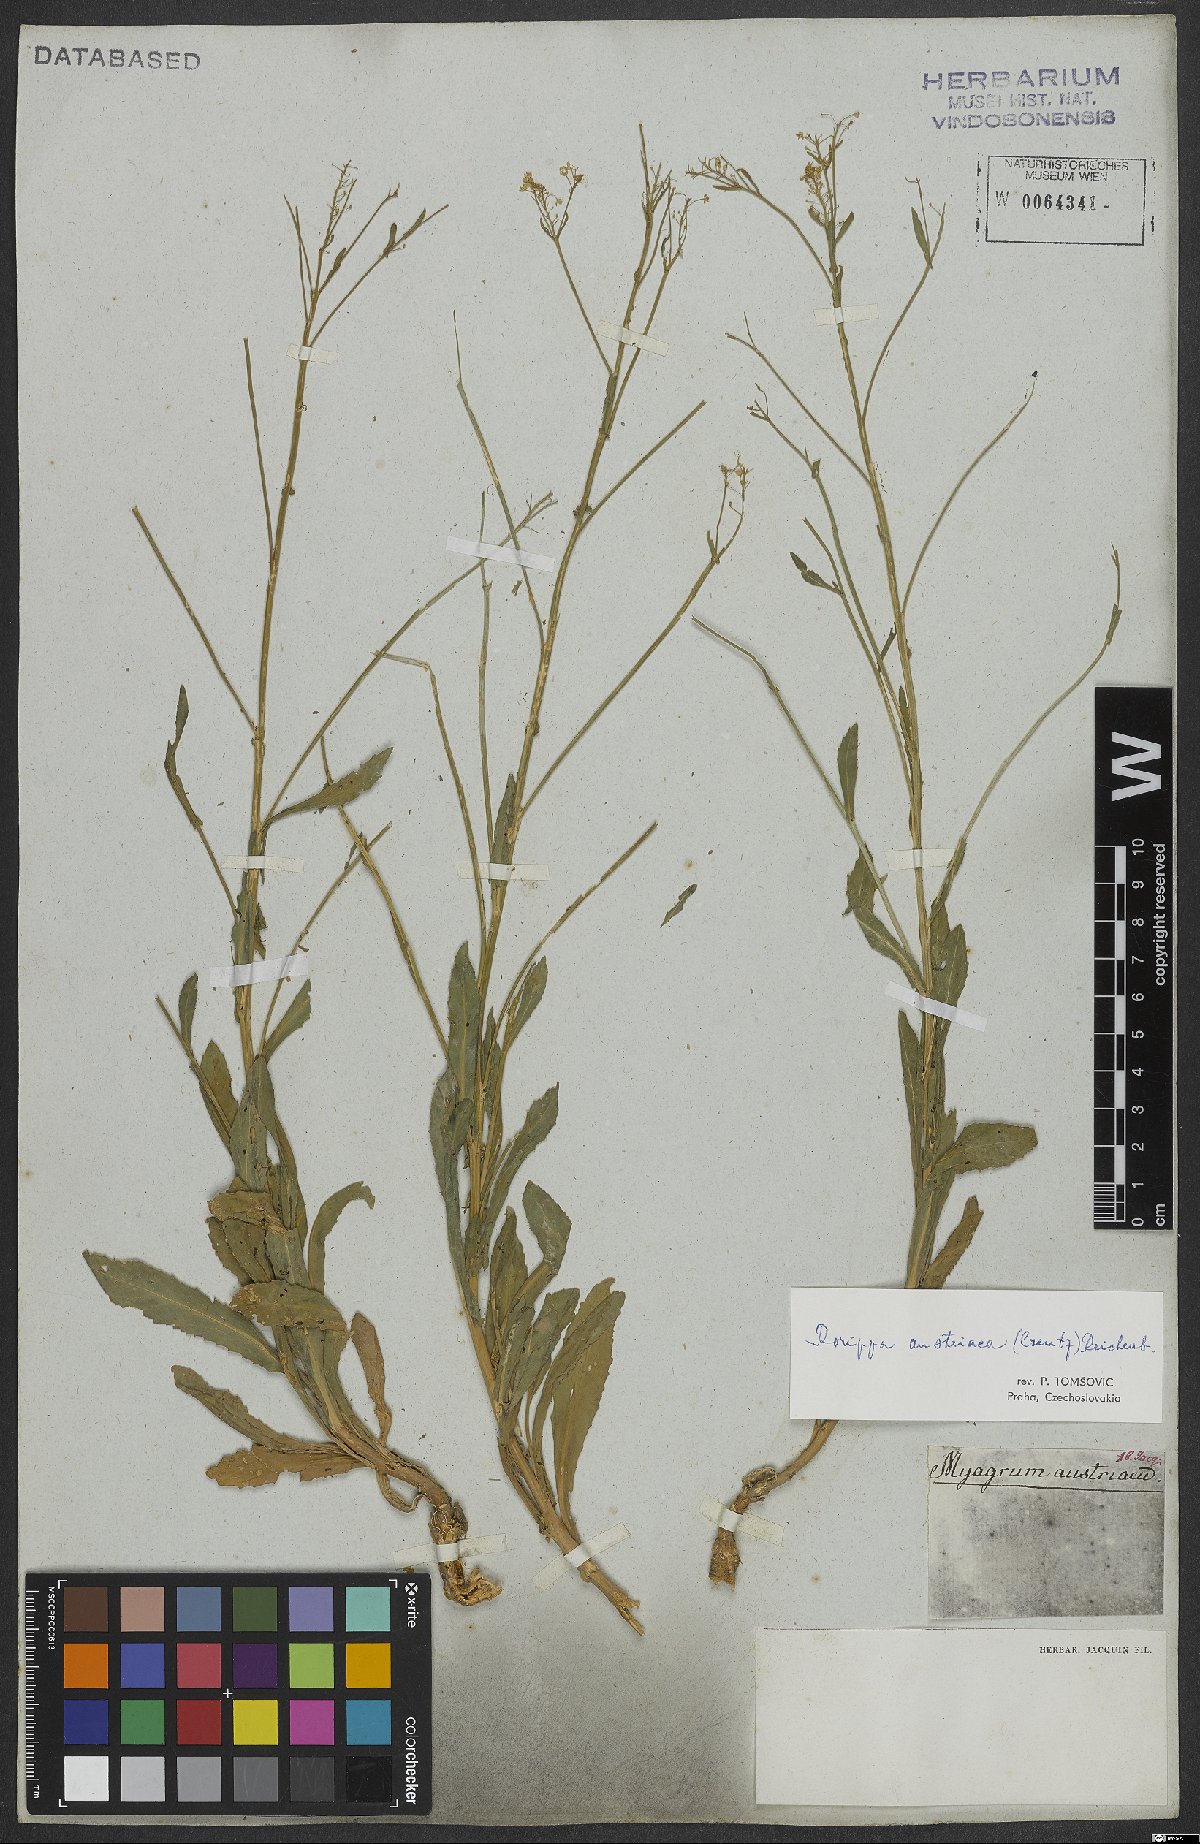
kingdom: Plantae
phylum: Tracheophyta
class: Magnoliopsida
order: Brassicales
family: Brassicaceae
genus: Rorippa
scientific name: Rorippa austriaca
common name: Austrian yellow-cress
